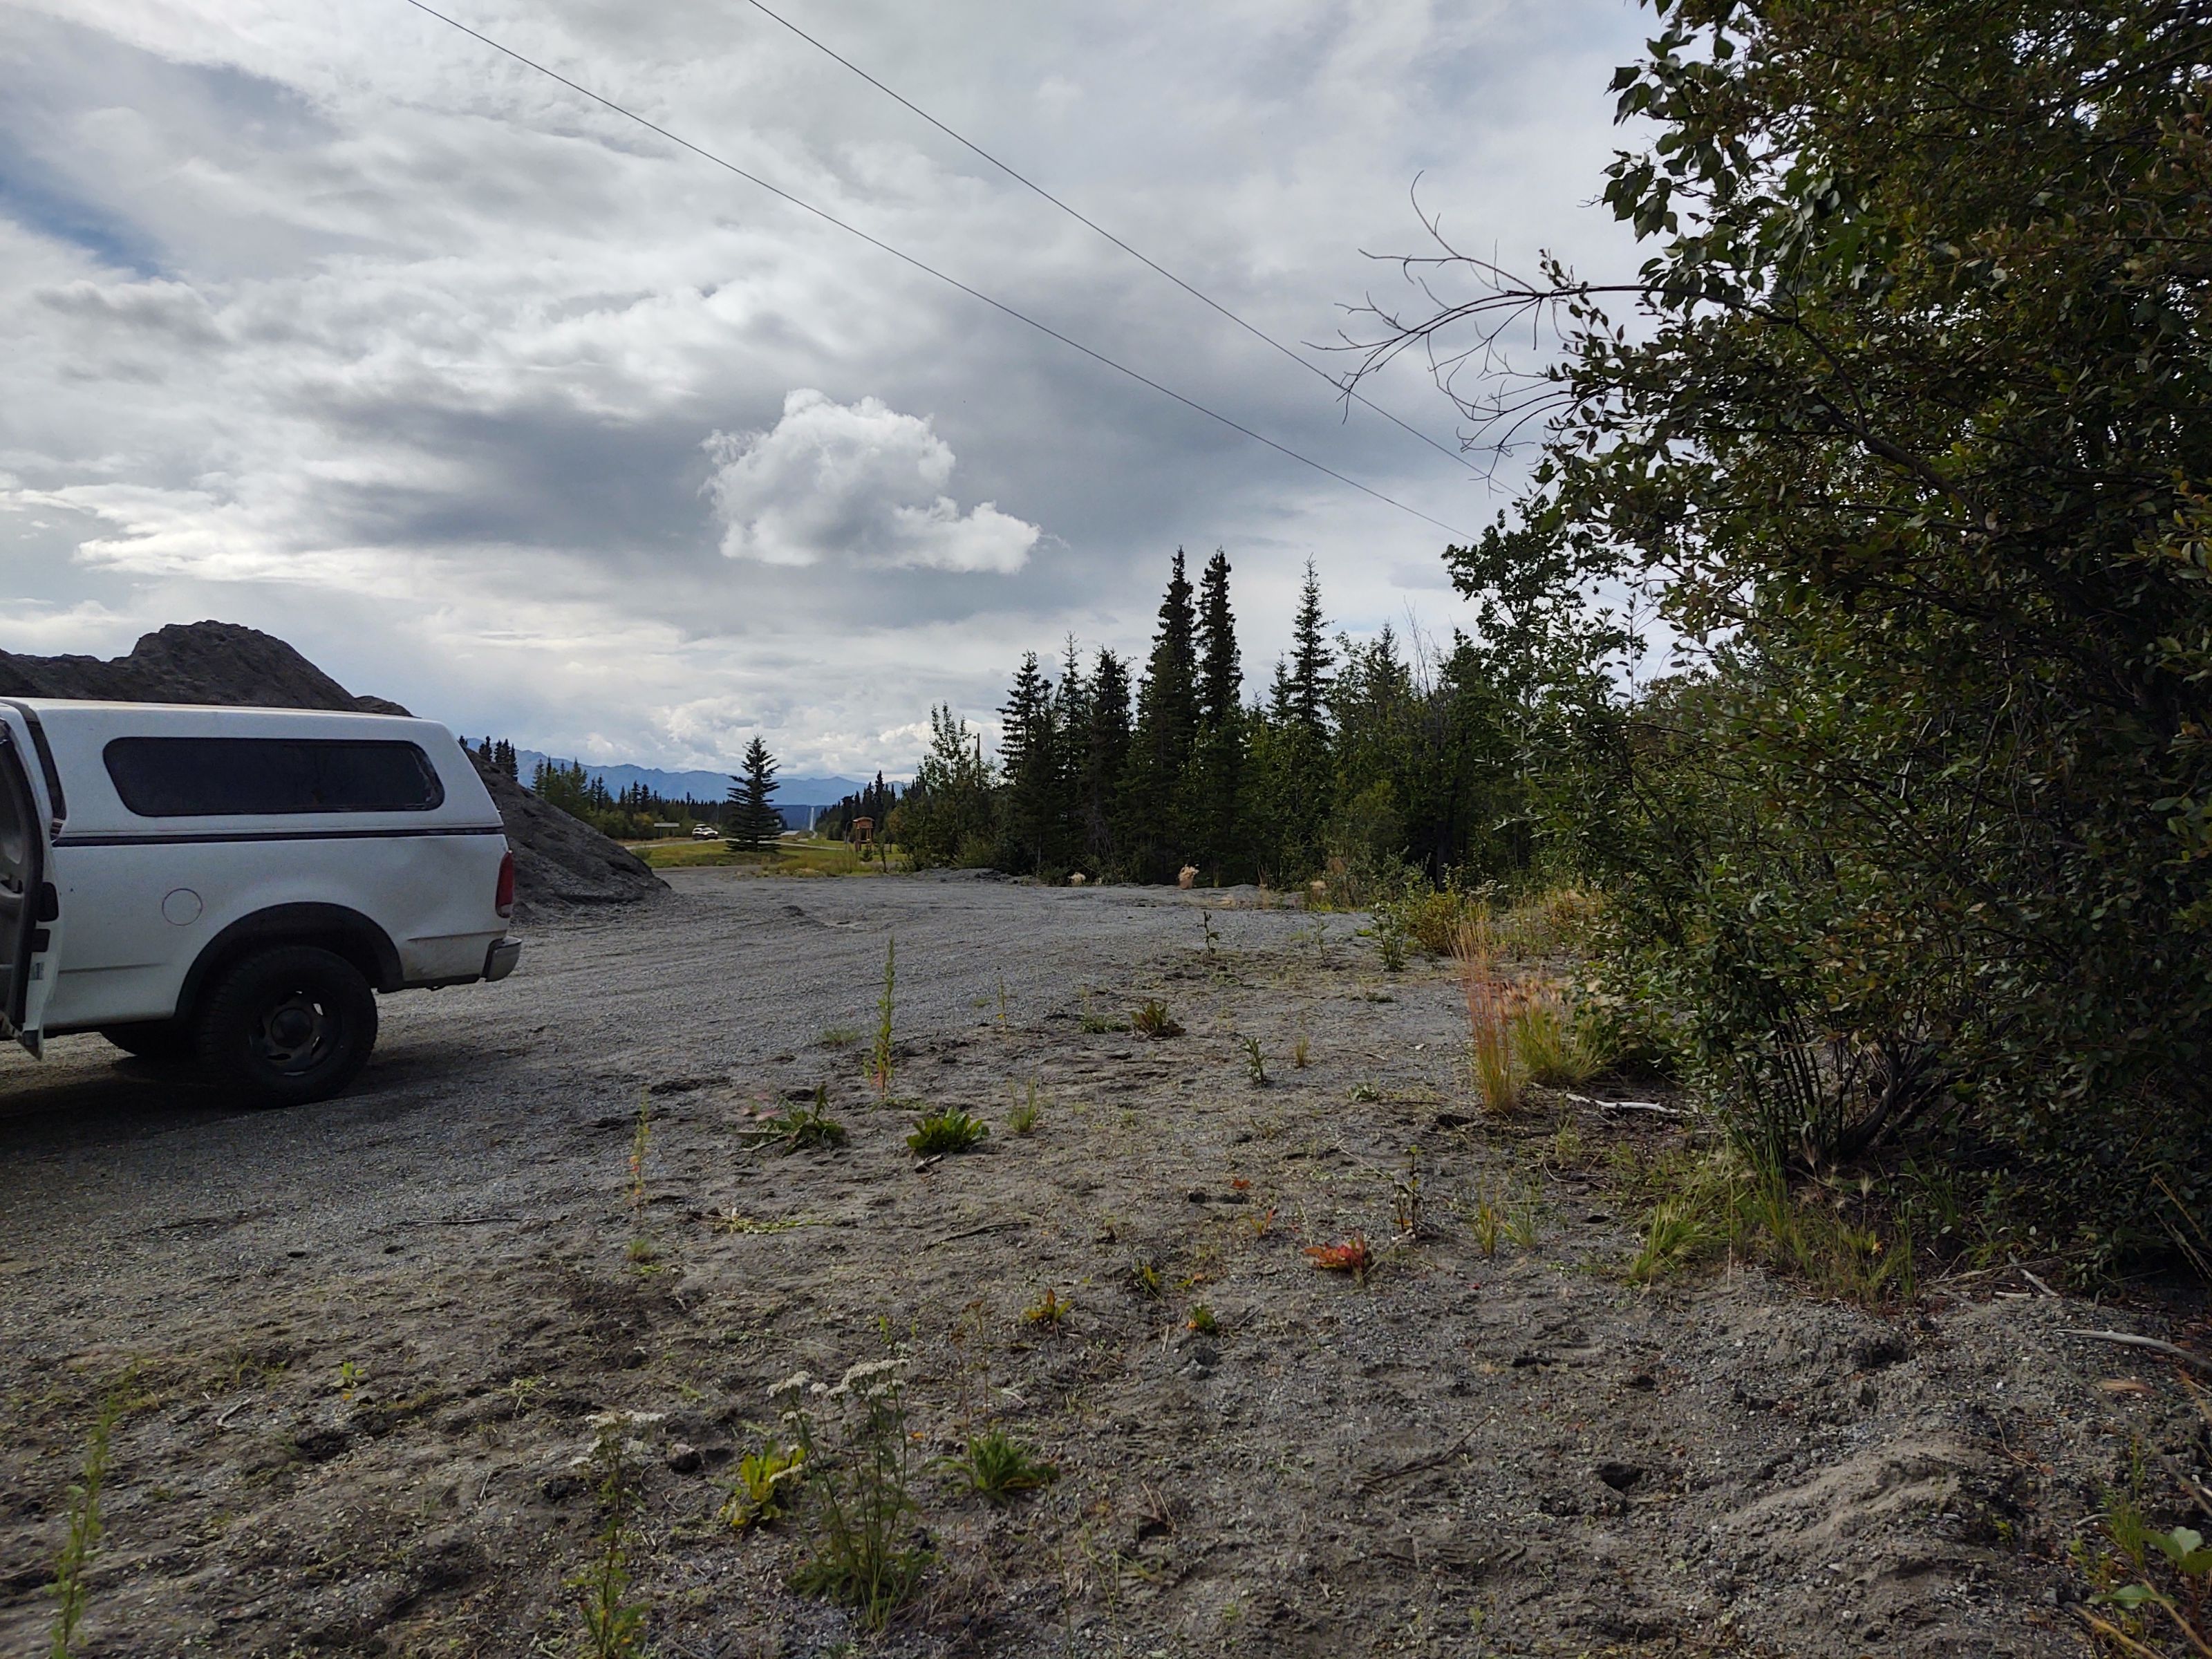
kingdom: Plantae
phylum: Tracheophyta
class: Magnoliopsida
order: Fabales
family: Fabaceae
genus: Melilotus
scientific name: Melilotus albus
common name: White sweetclover
